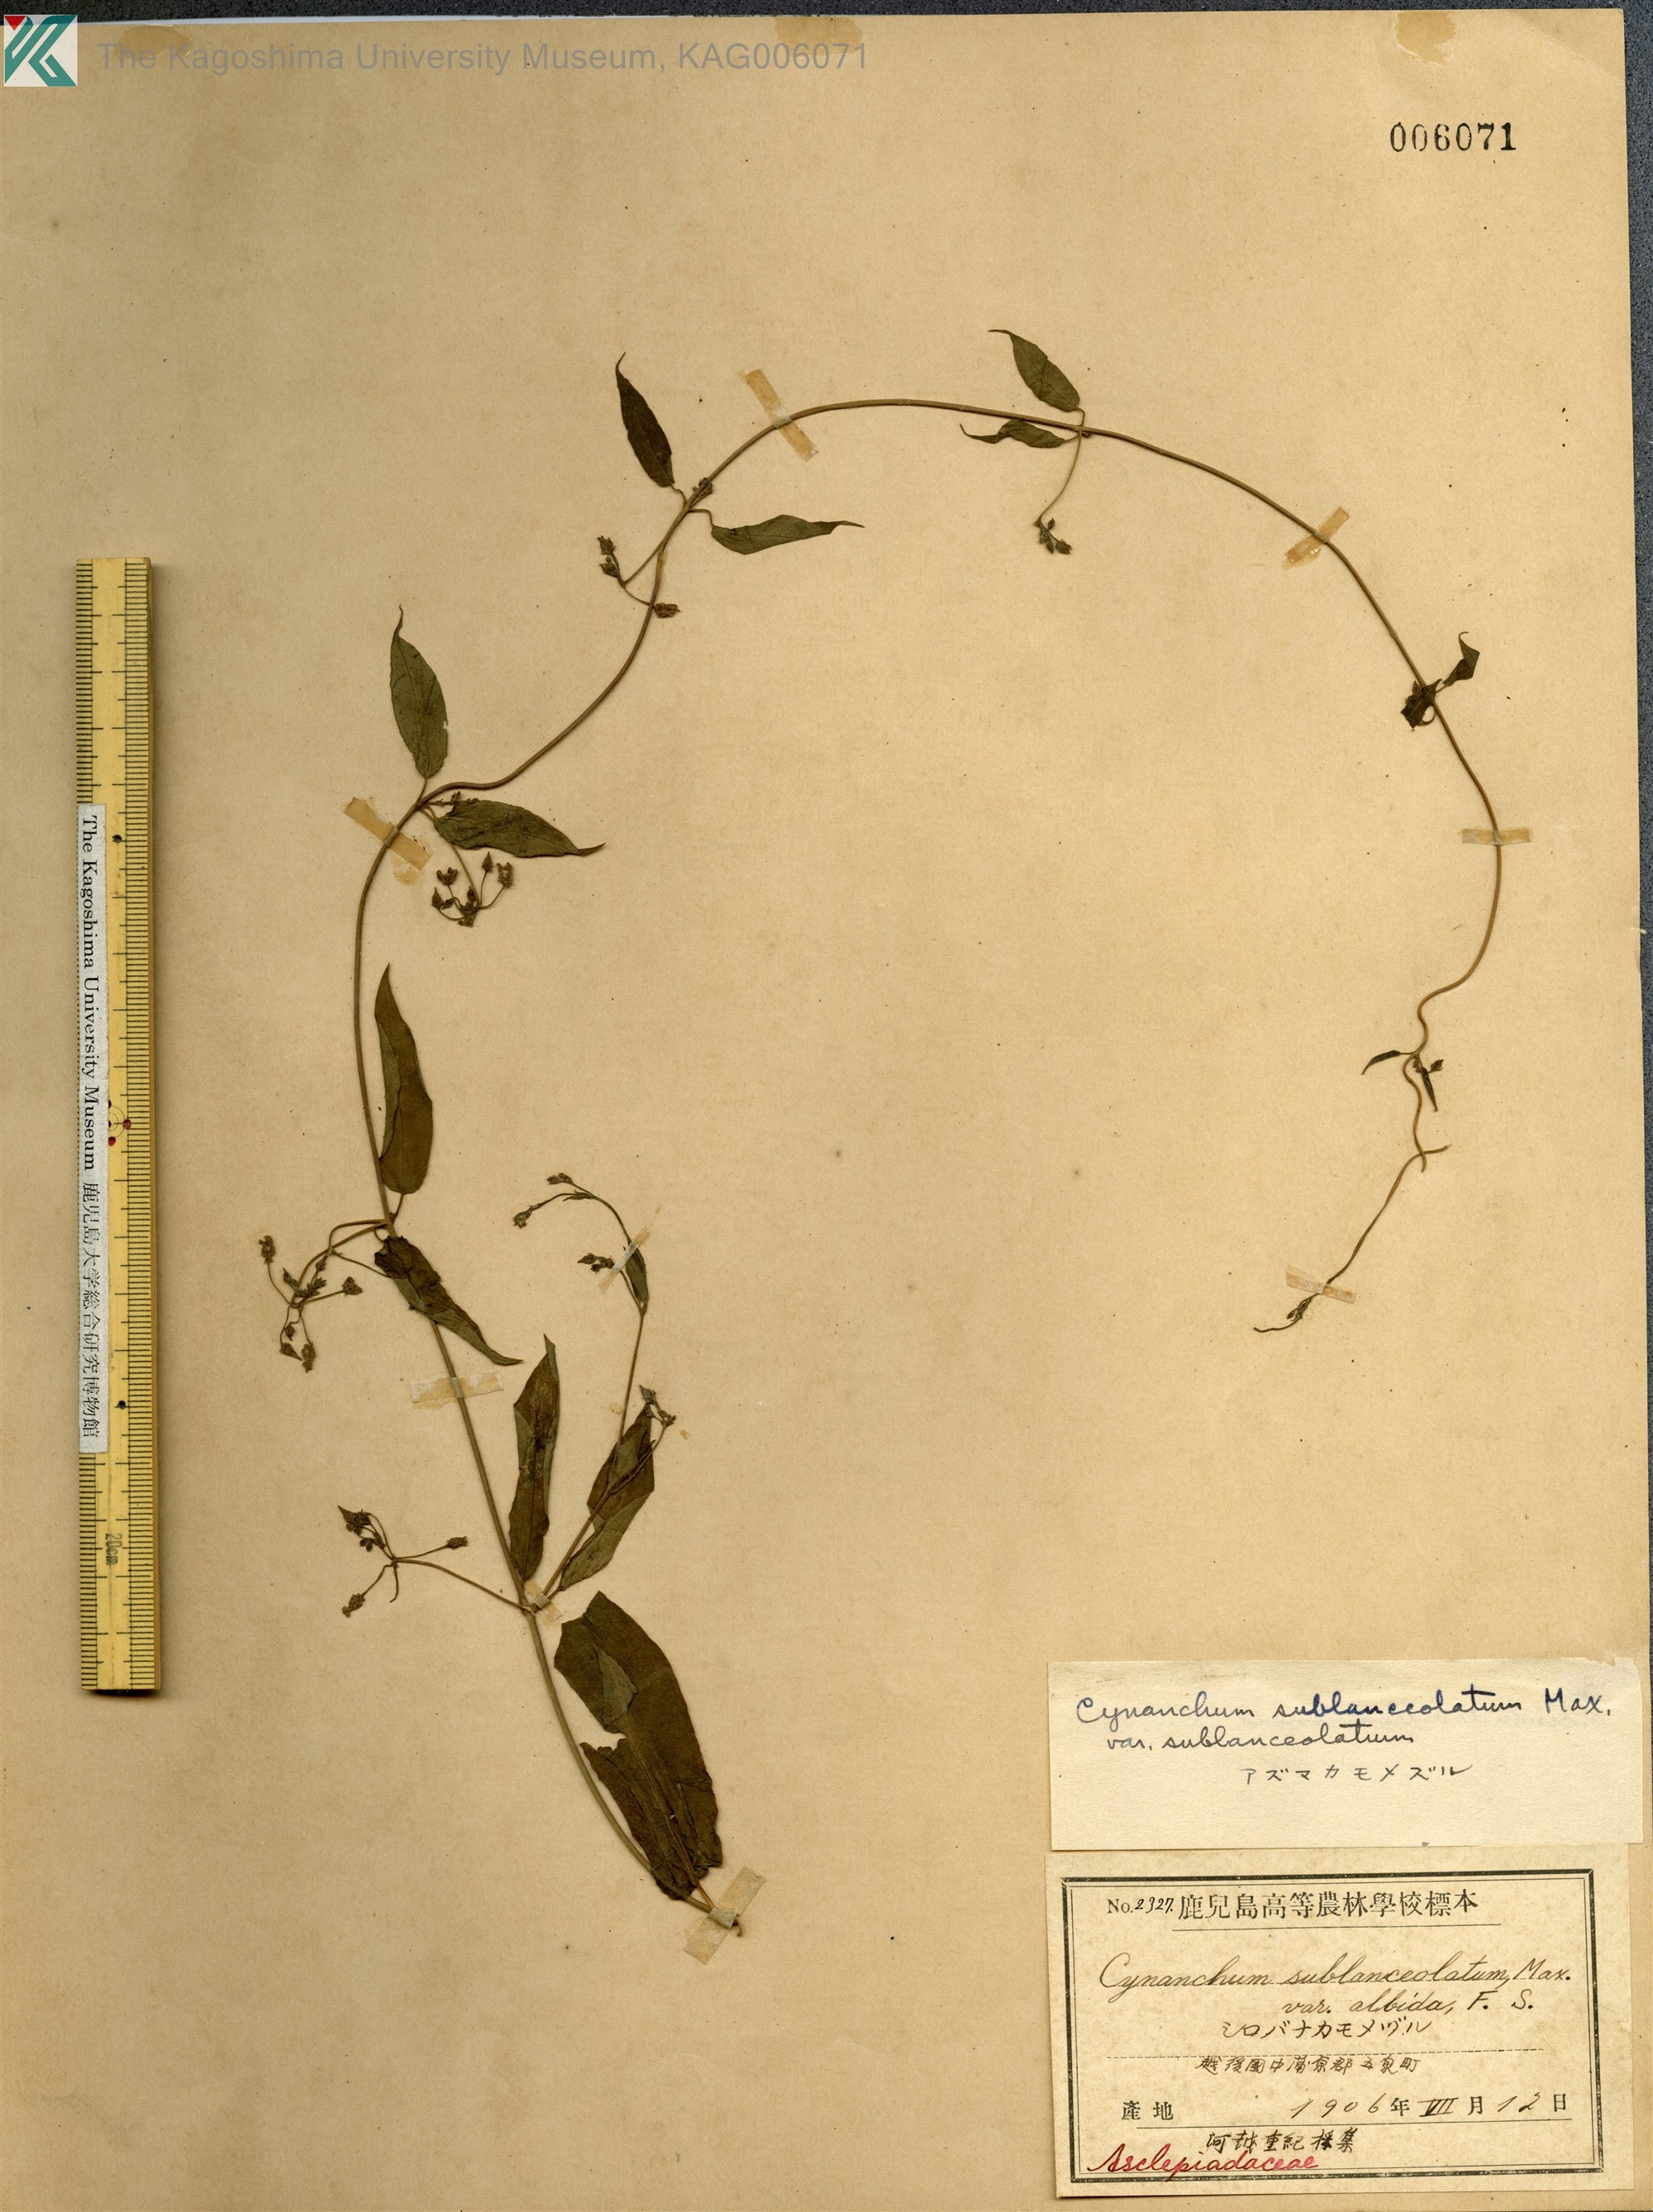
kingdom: Plantae
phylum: Tracheophyta
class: Magnoliopsida
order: Gentianales
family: Apocynaceae
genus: Vincetoxicum
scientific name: Vincetoxicum sublanceolatum
